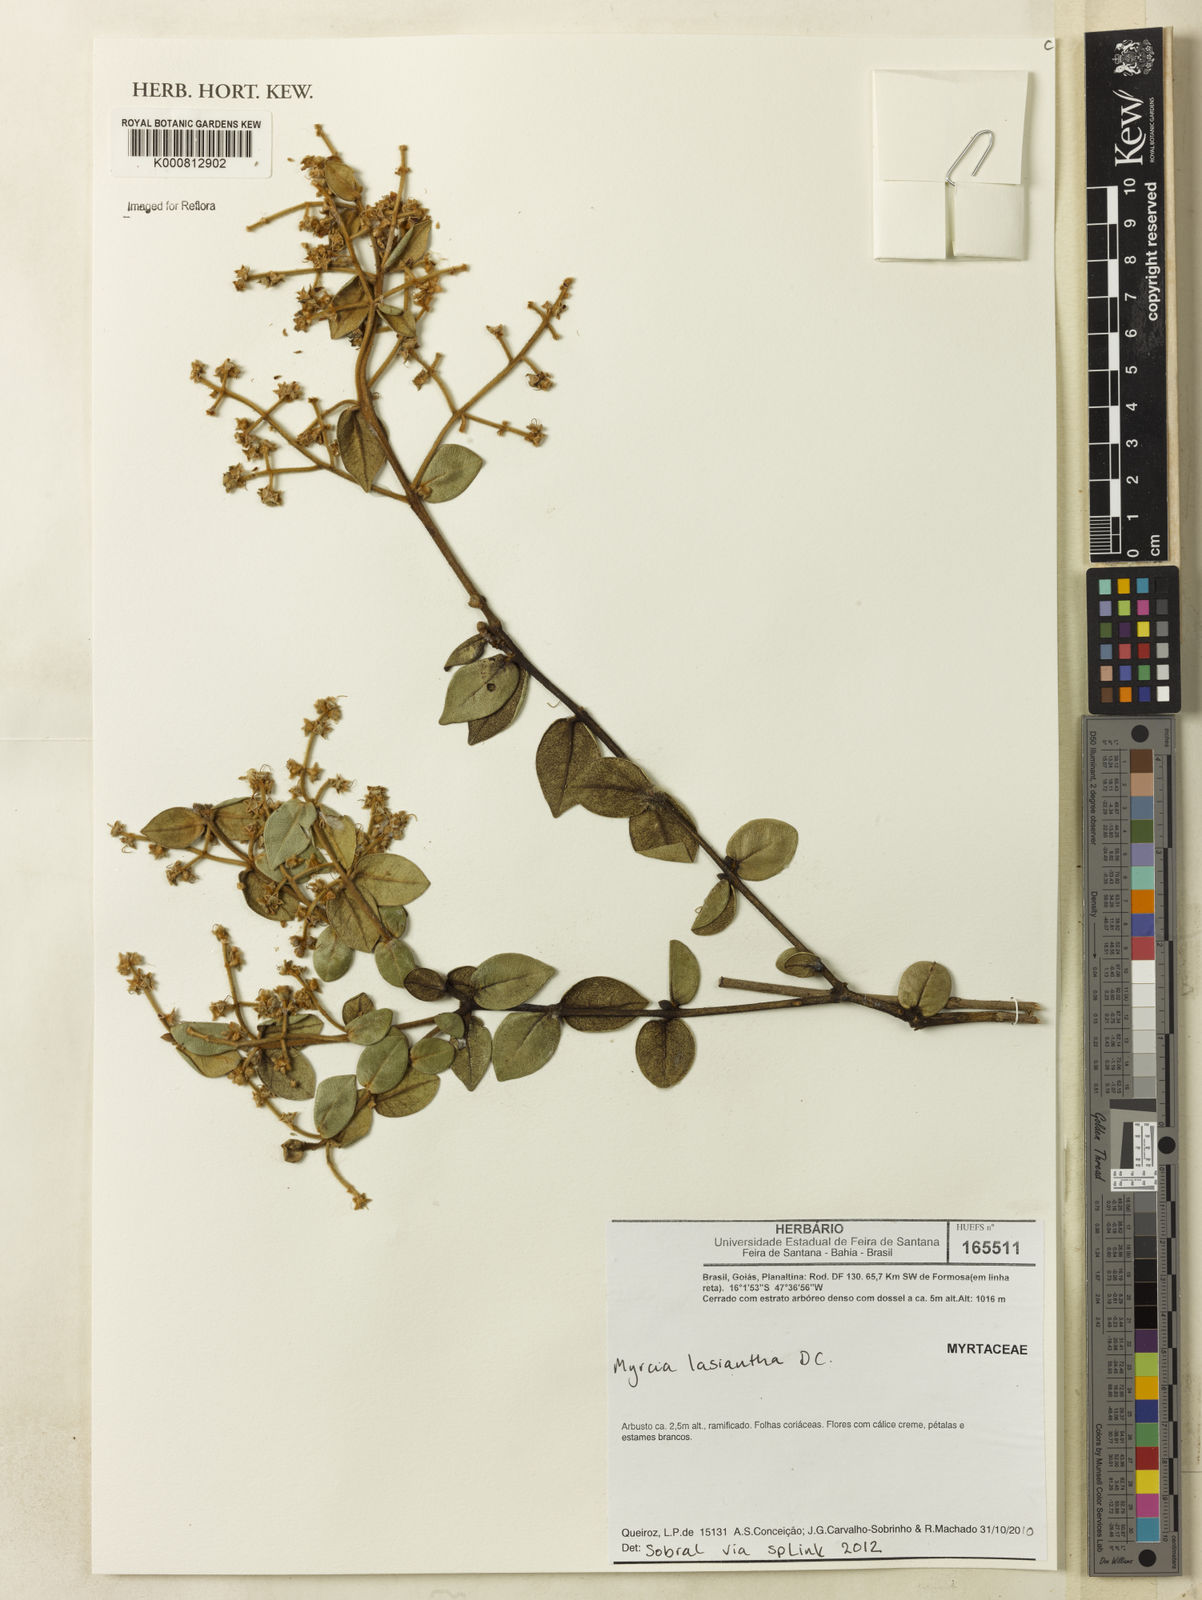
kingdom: Plantae
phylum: Tracheophyta
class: Magnoliopsida
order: Myrtales
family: Myrtaceae
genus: Myrcia
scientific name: Myrcia lasiantha
